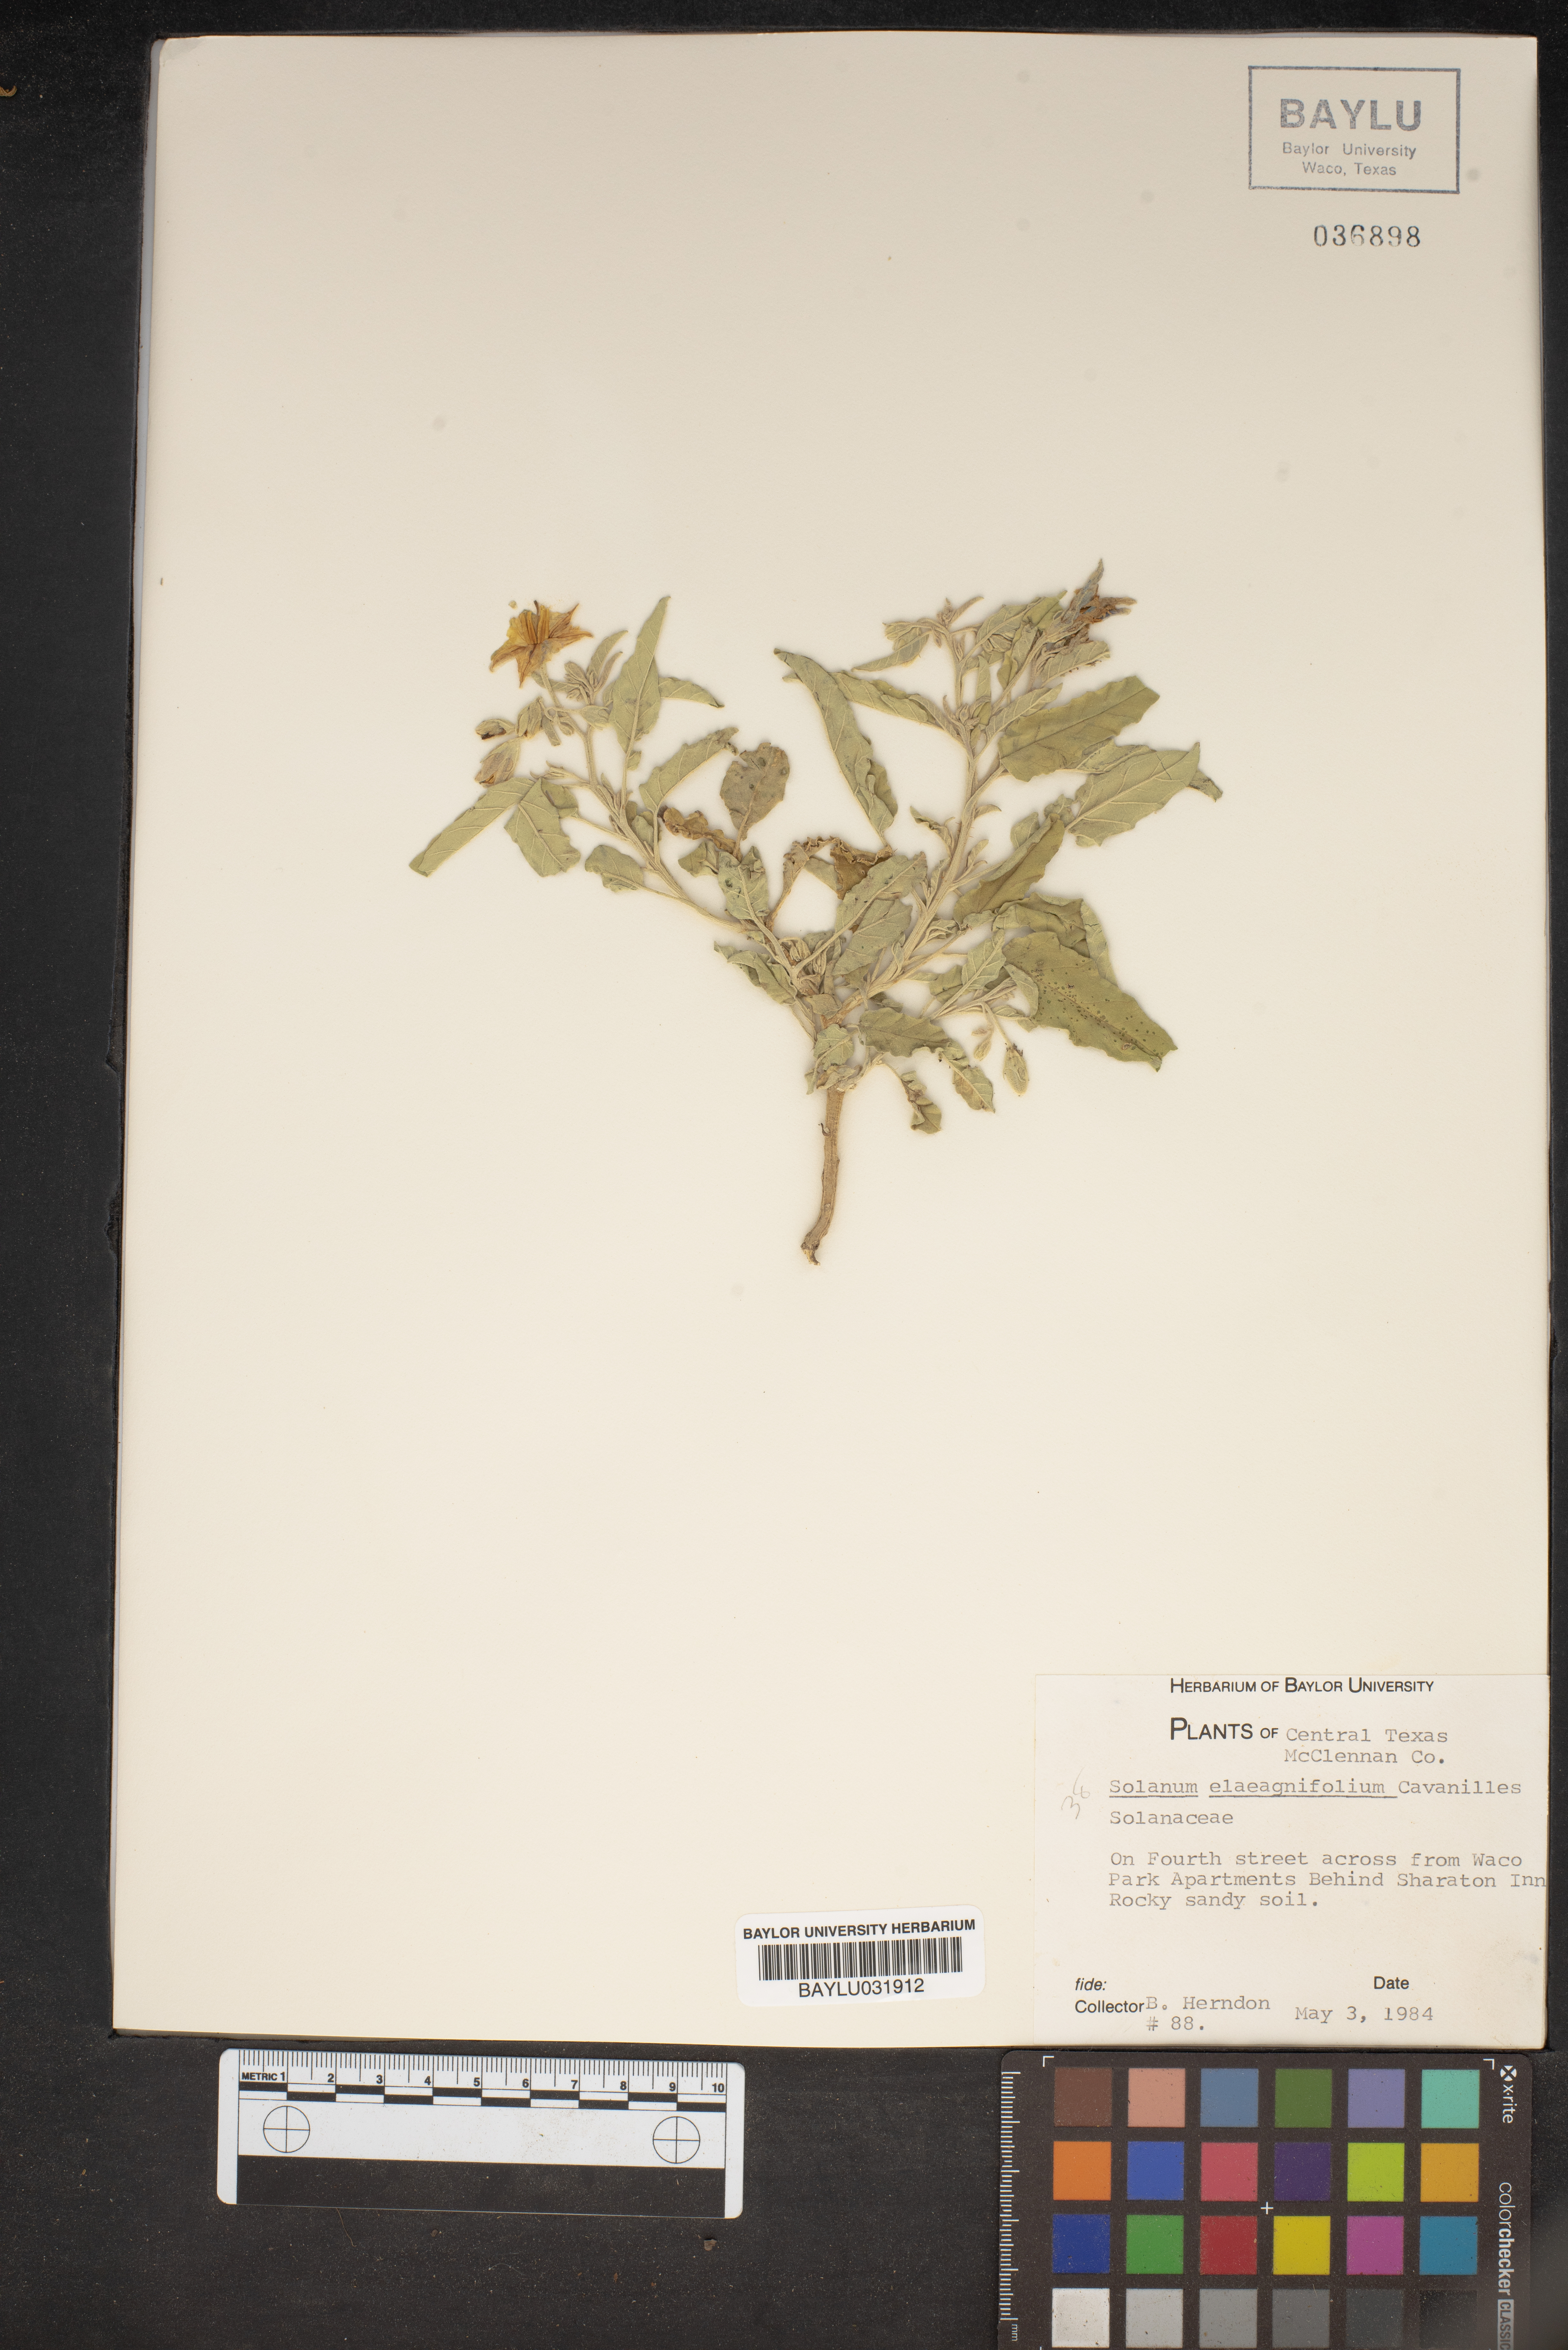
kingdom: Plantae
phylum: Tracheophyta
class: Magnoliopsida
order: Solanales
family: Solanaceae
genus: Solanum
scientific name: Solanum elaeagnifolium
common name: Silverleaf nightshade
